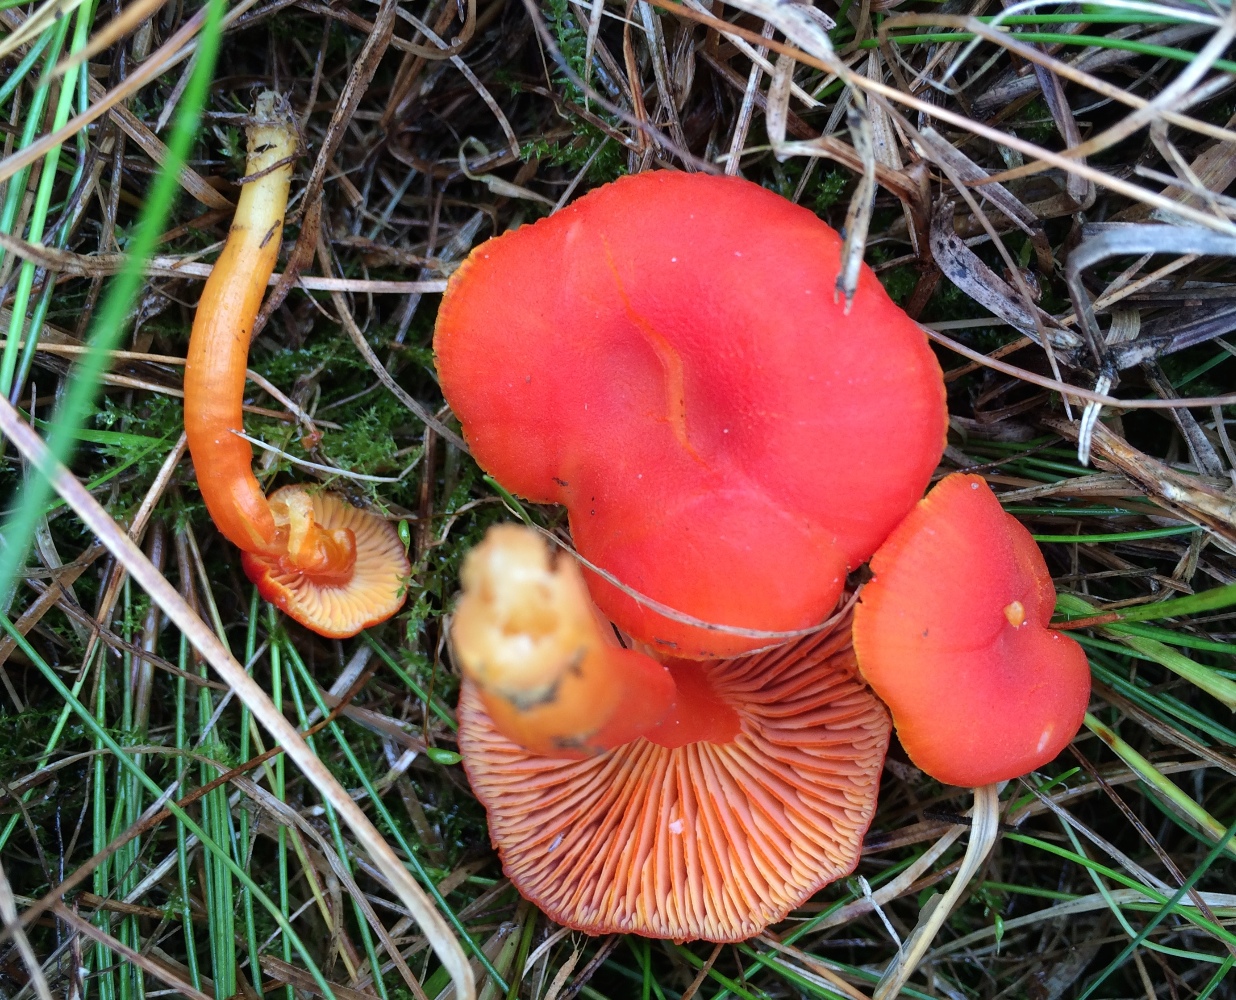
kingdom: Fungi
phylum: Basidiomycota
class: Agaricomycetes
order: Agaricales
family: Hygrophoraceae
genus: Hygrocybe
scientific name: Hygrocybe miniata
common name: mønje-vokshat
